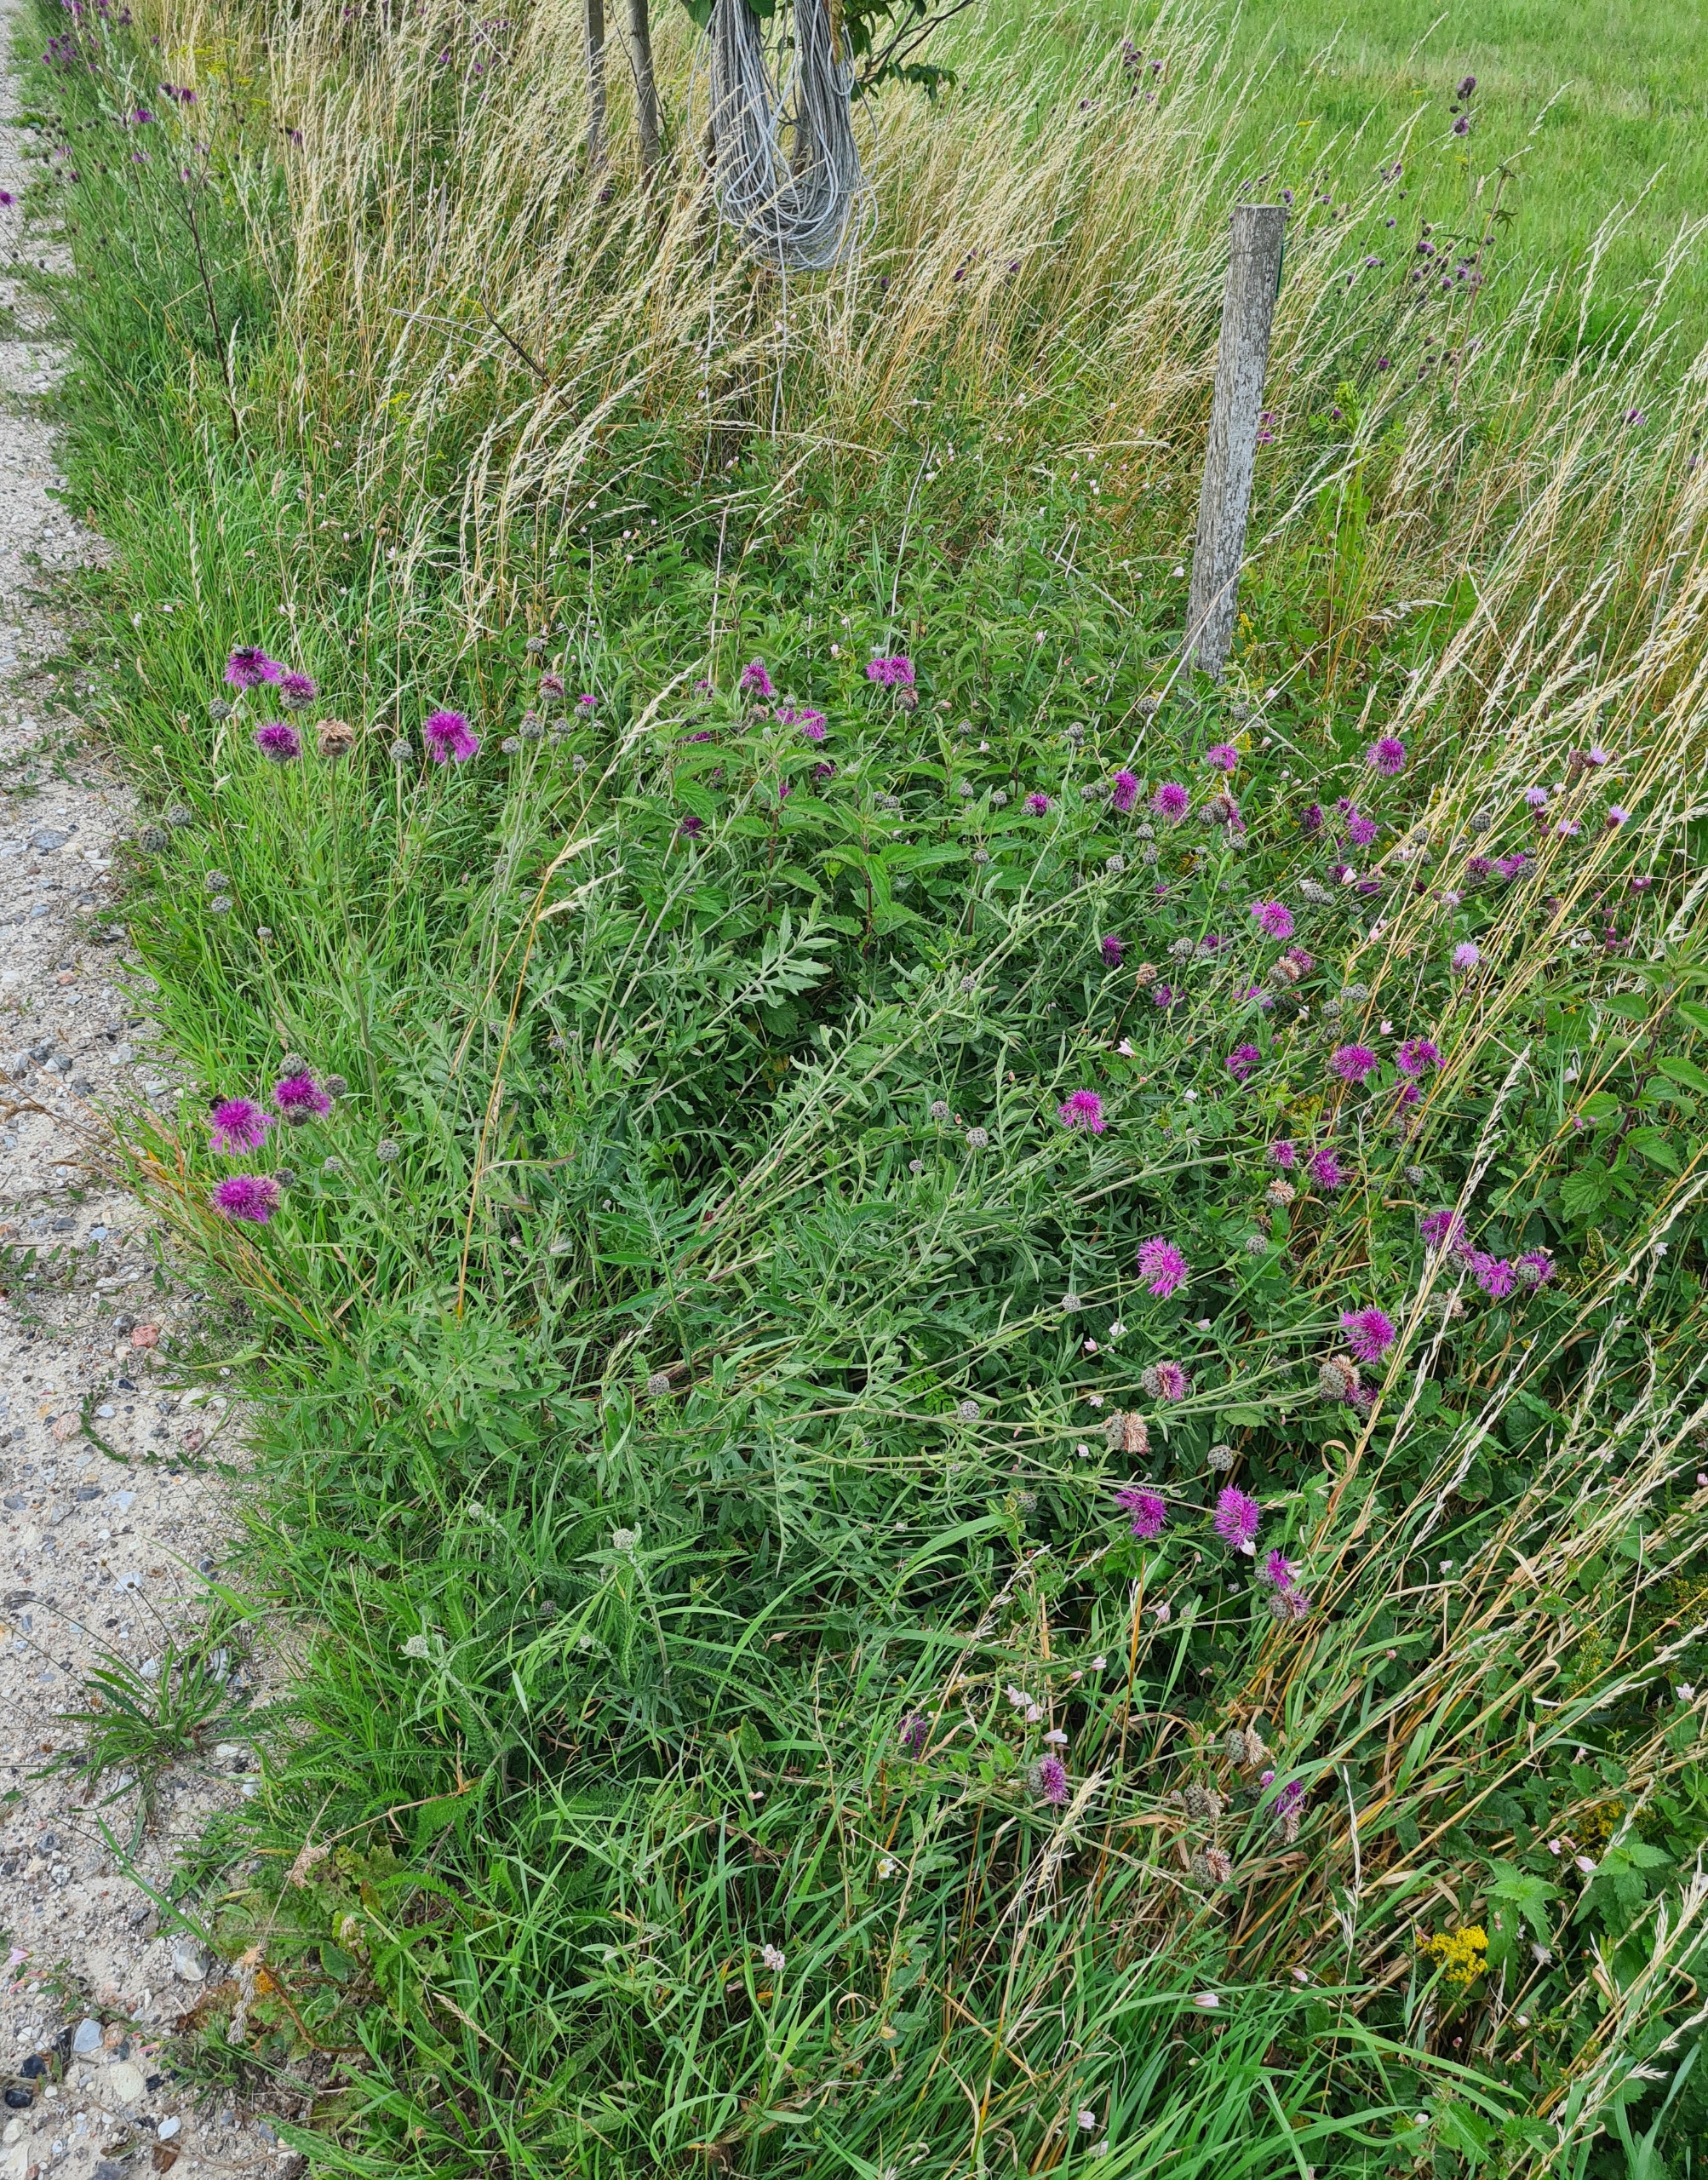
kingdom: Plantae
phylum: Tracheophyta
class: Magnoliopsida
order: Asterales
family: Asteraceae
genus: Centaurea
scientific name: Centaurea scabiosa
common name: Stor knopurt
